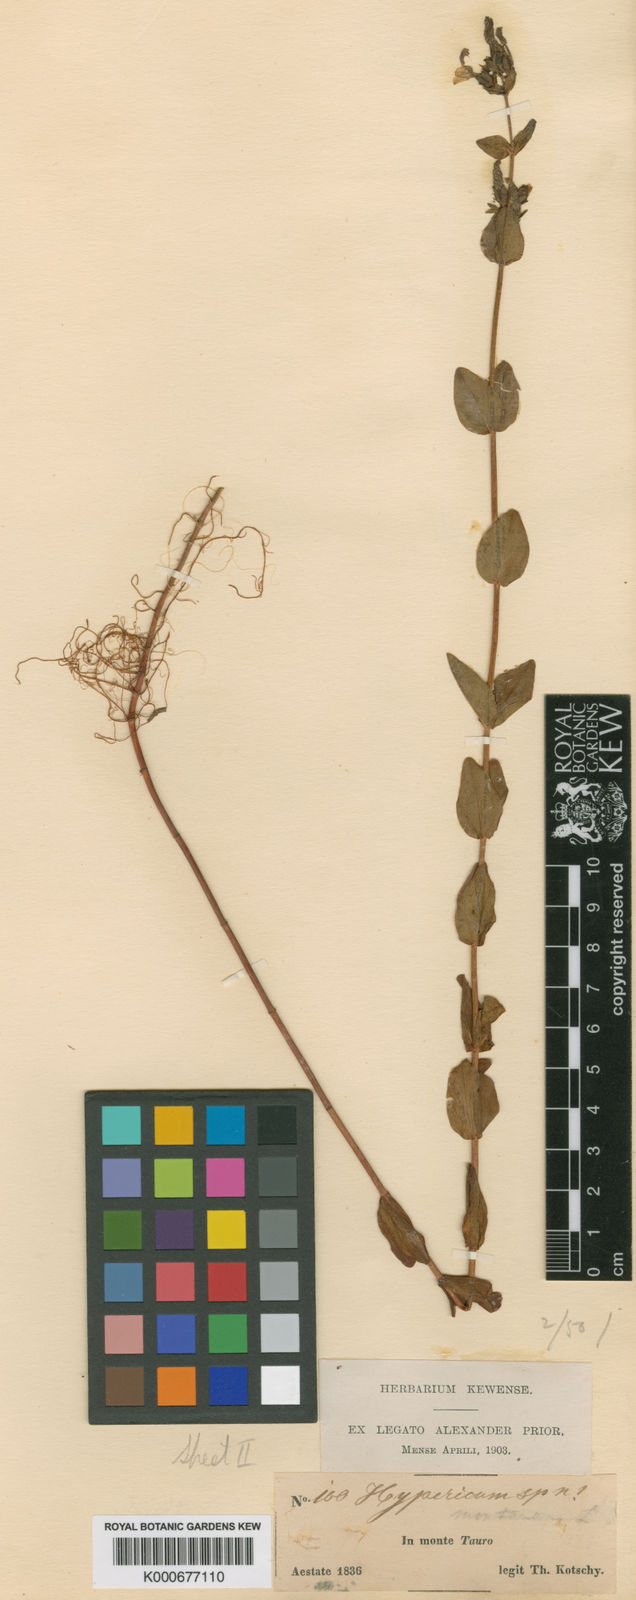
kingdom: Plantae
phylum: Tracheophyta
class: Magnoliopsida
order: Malpighiales
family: Hypericaceae
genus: Hypericum
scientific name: Hypericum venustum
